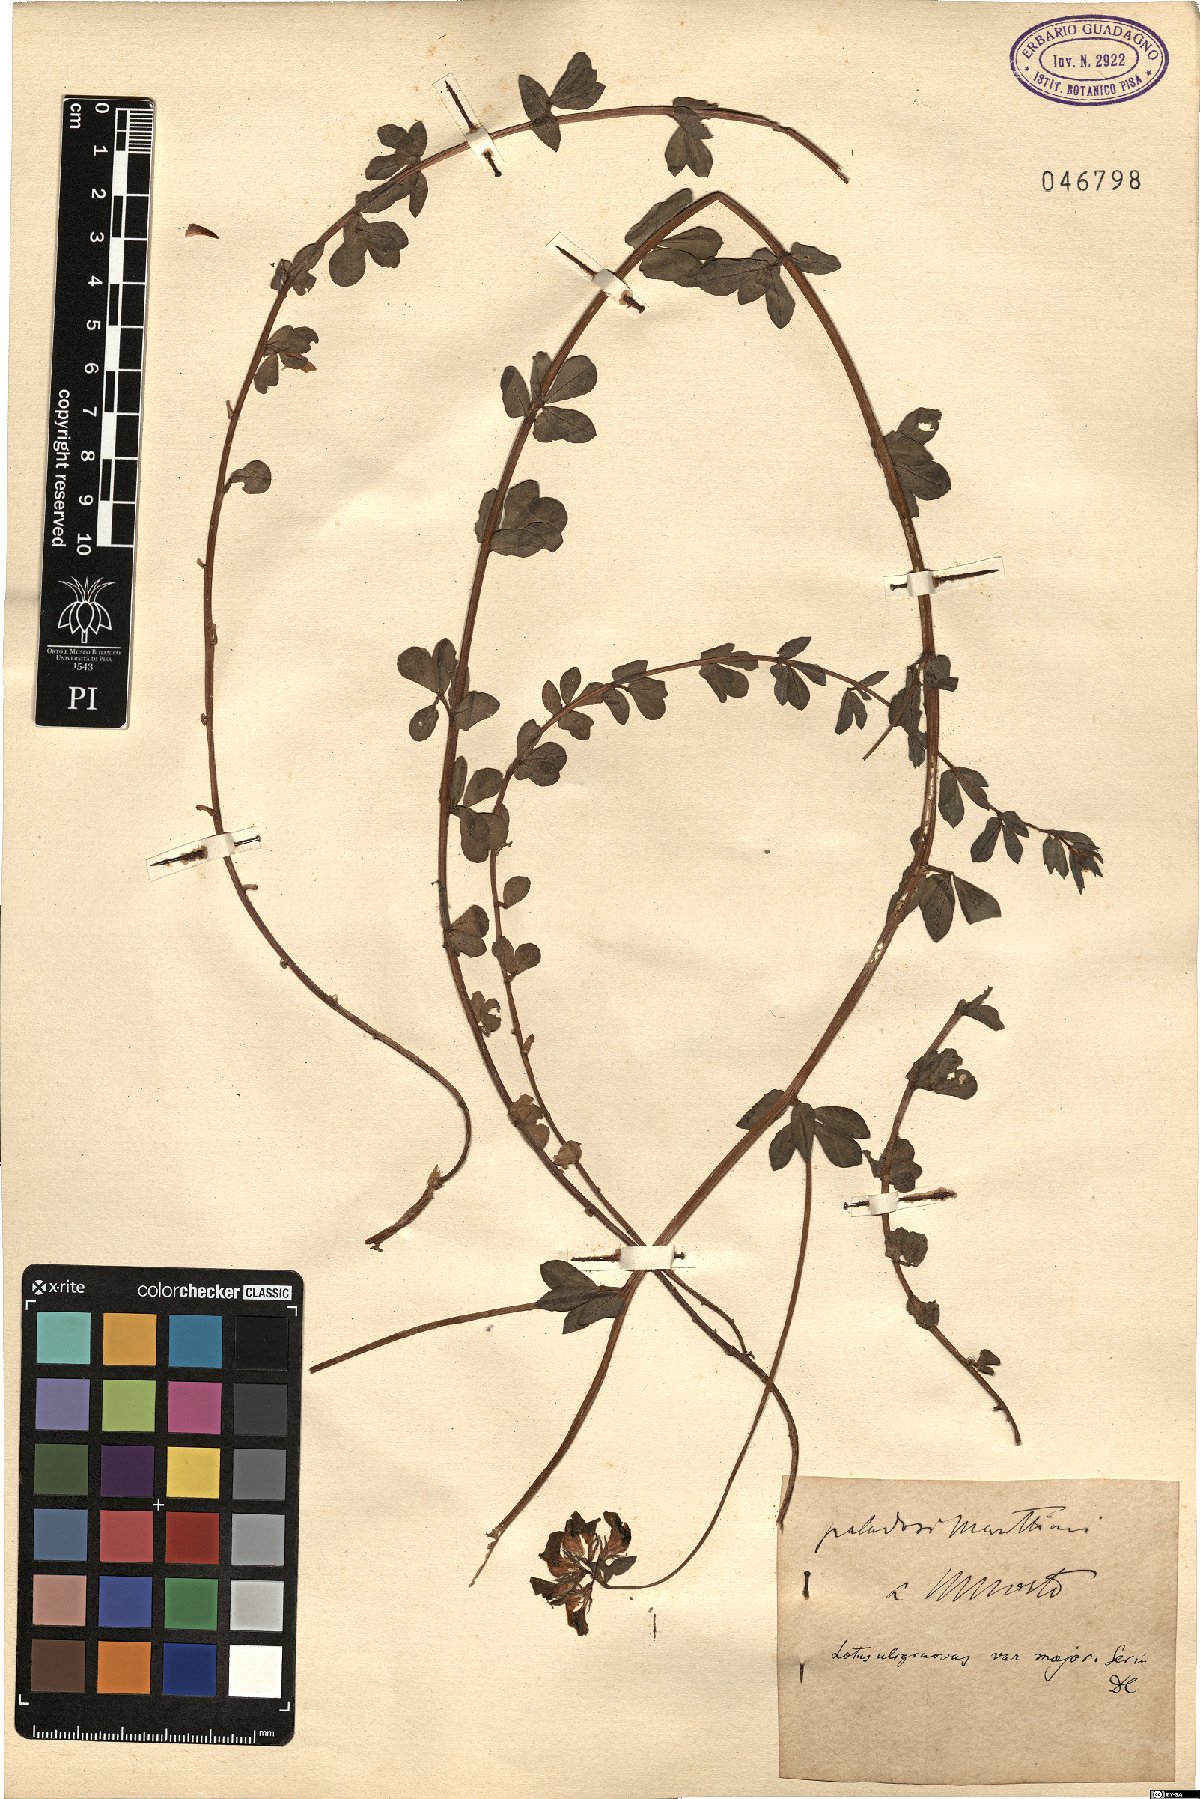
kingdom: Plantae
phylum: Tracheophyta
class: Magnoliopsida
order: Fabales
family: Fabaceae
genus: Lotus
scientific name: Lotus pedunculatus
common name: Greater birdsfoot-trefoil
